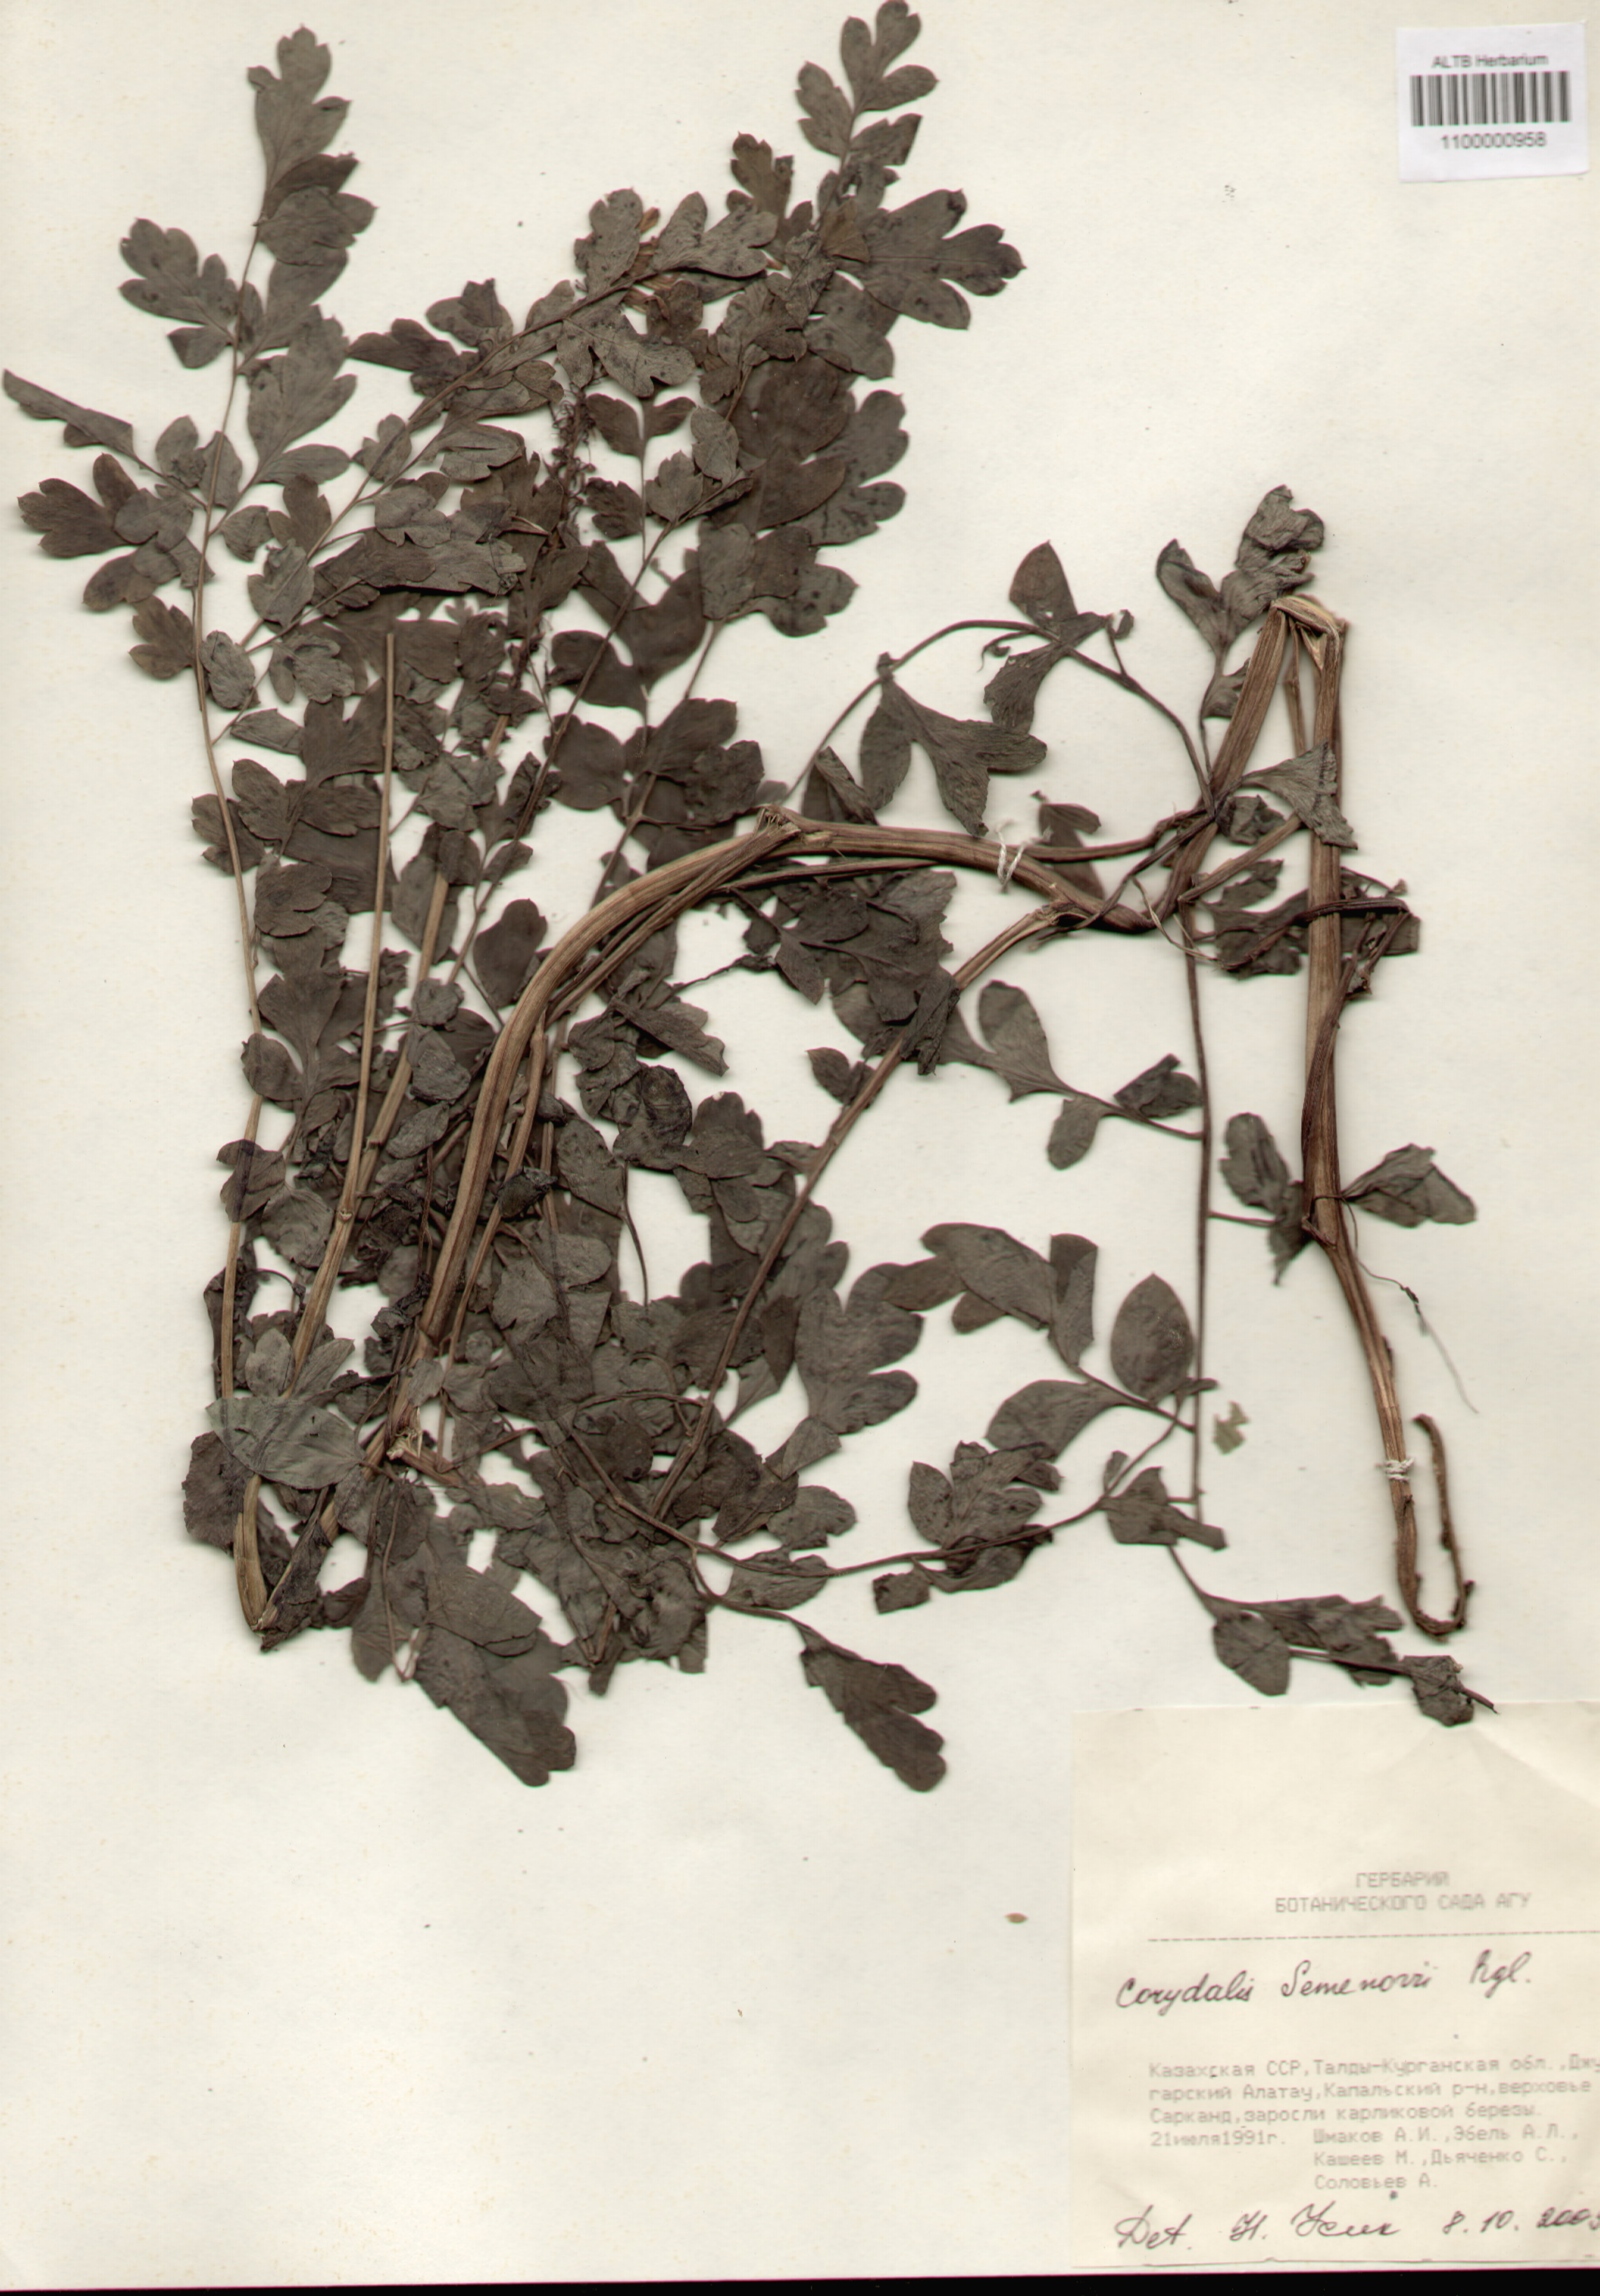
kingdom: Plantae
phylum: Tracheophyta
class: Magnoliopsida
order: Ranunculales
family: Papaveraceae
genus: Corydalis
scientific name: Corydalis
